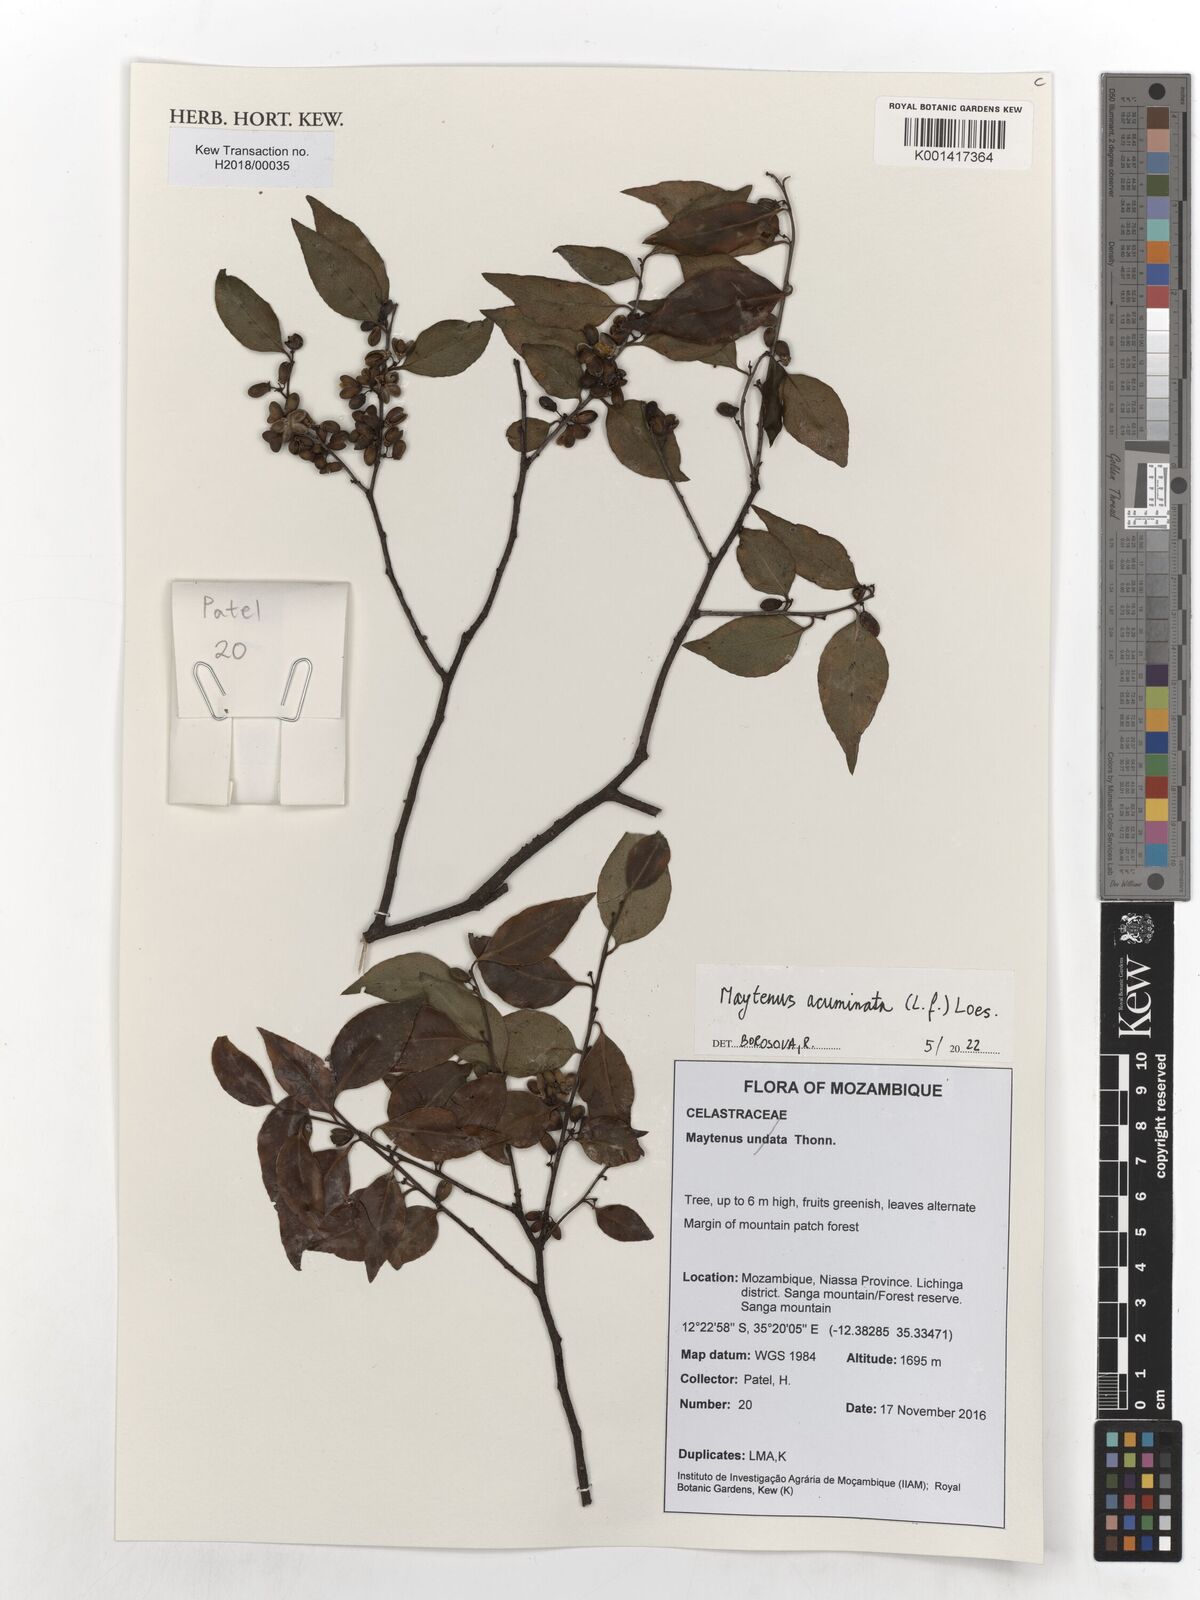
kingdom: Plantae
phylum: Tracheophyta
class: Magnoliopsida
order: Celastrales
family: Celastraceae
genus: Gymnosporia
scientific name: Gymnosporia acuminata
